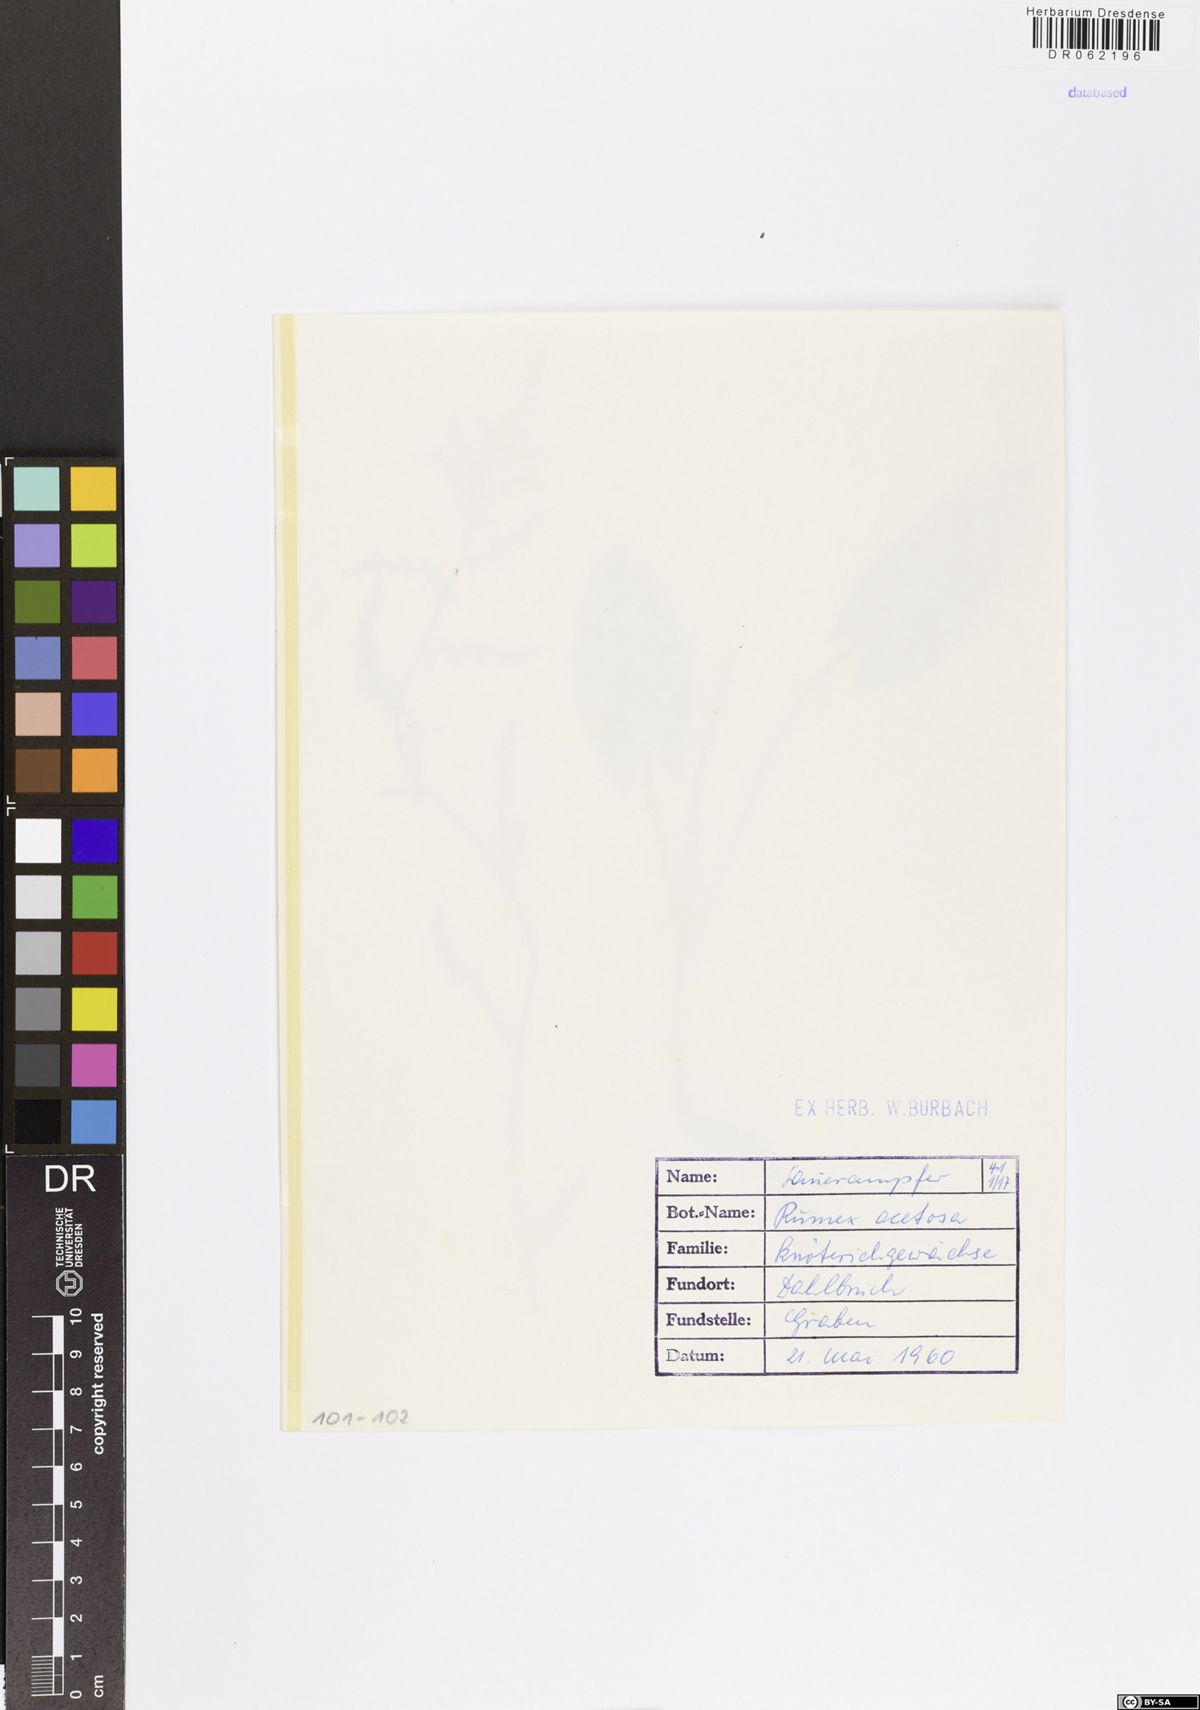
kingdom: Plantae
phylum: Tracheophyta
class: Magnoliopsida
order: Caryophyllales
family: Polygonaceae
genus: Rumex
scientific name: Rumex acetosa
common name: Garden sorrel
